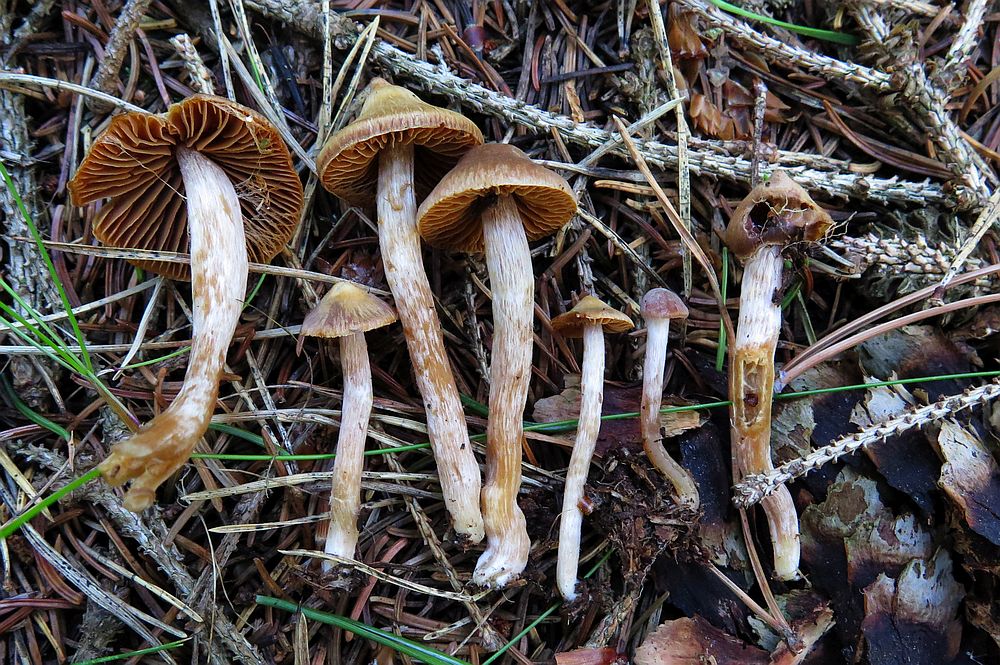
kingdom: Fungi
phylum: Basidiomycota
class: Agaricomycetes
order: Agaricales
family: Cortinariaceae
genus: Cortinarius
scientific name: Cortinarius albovariegatus
